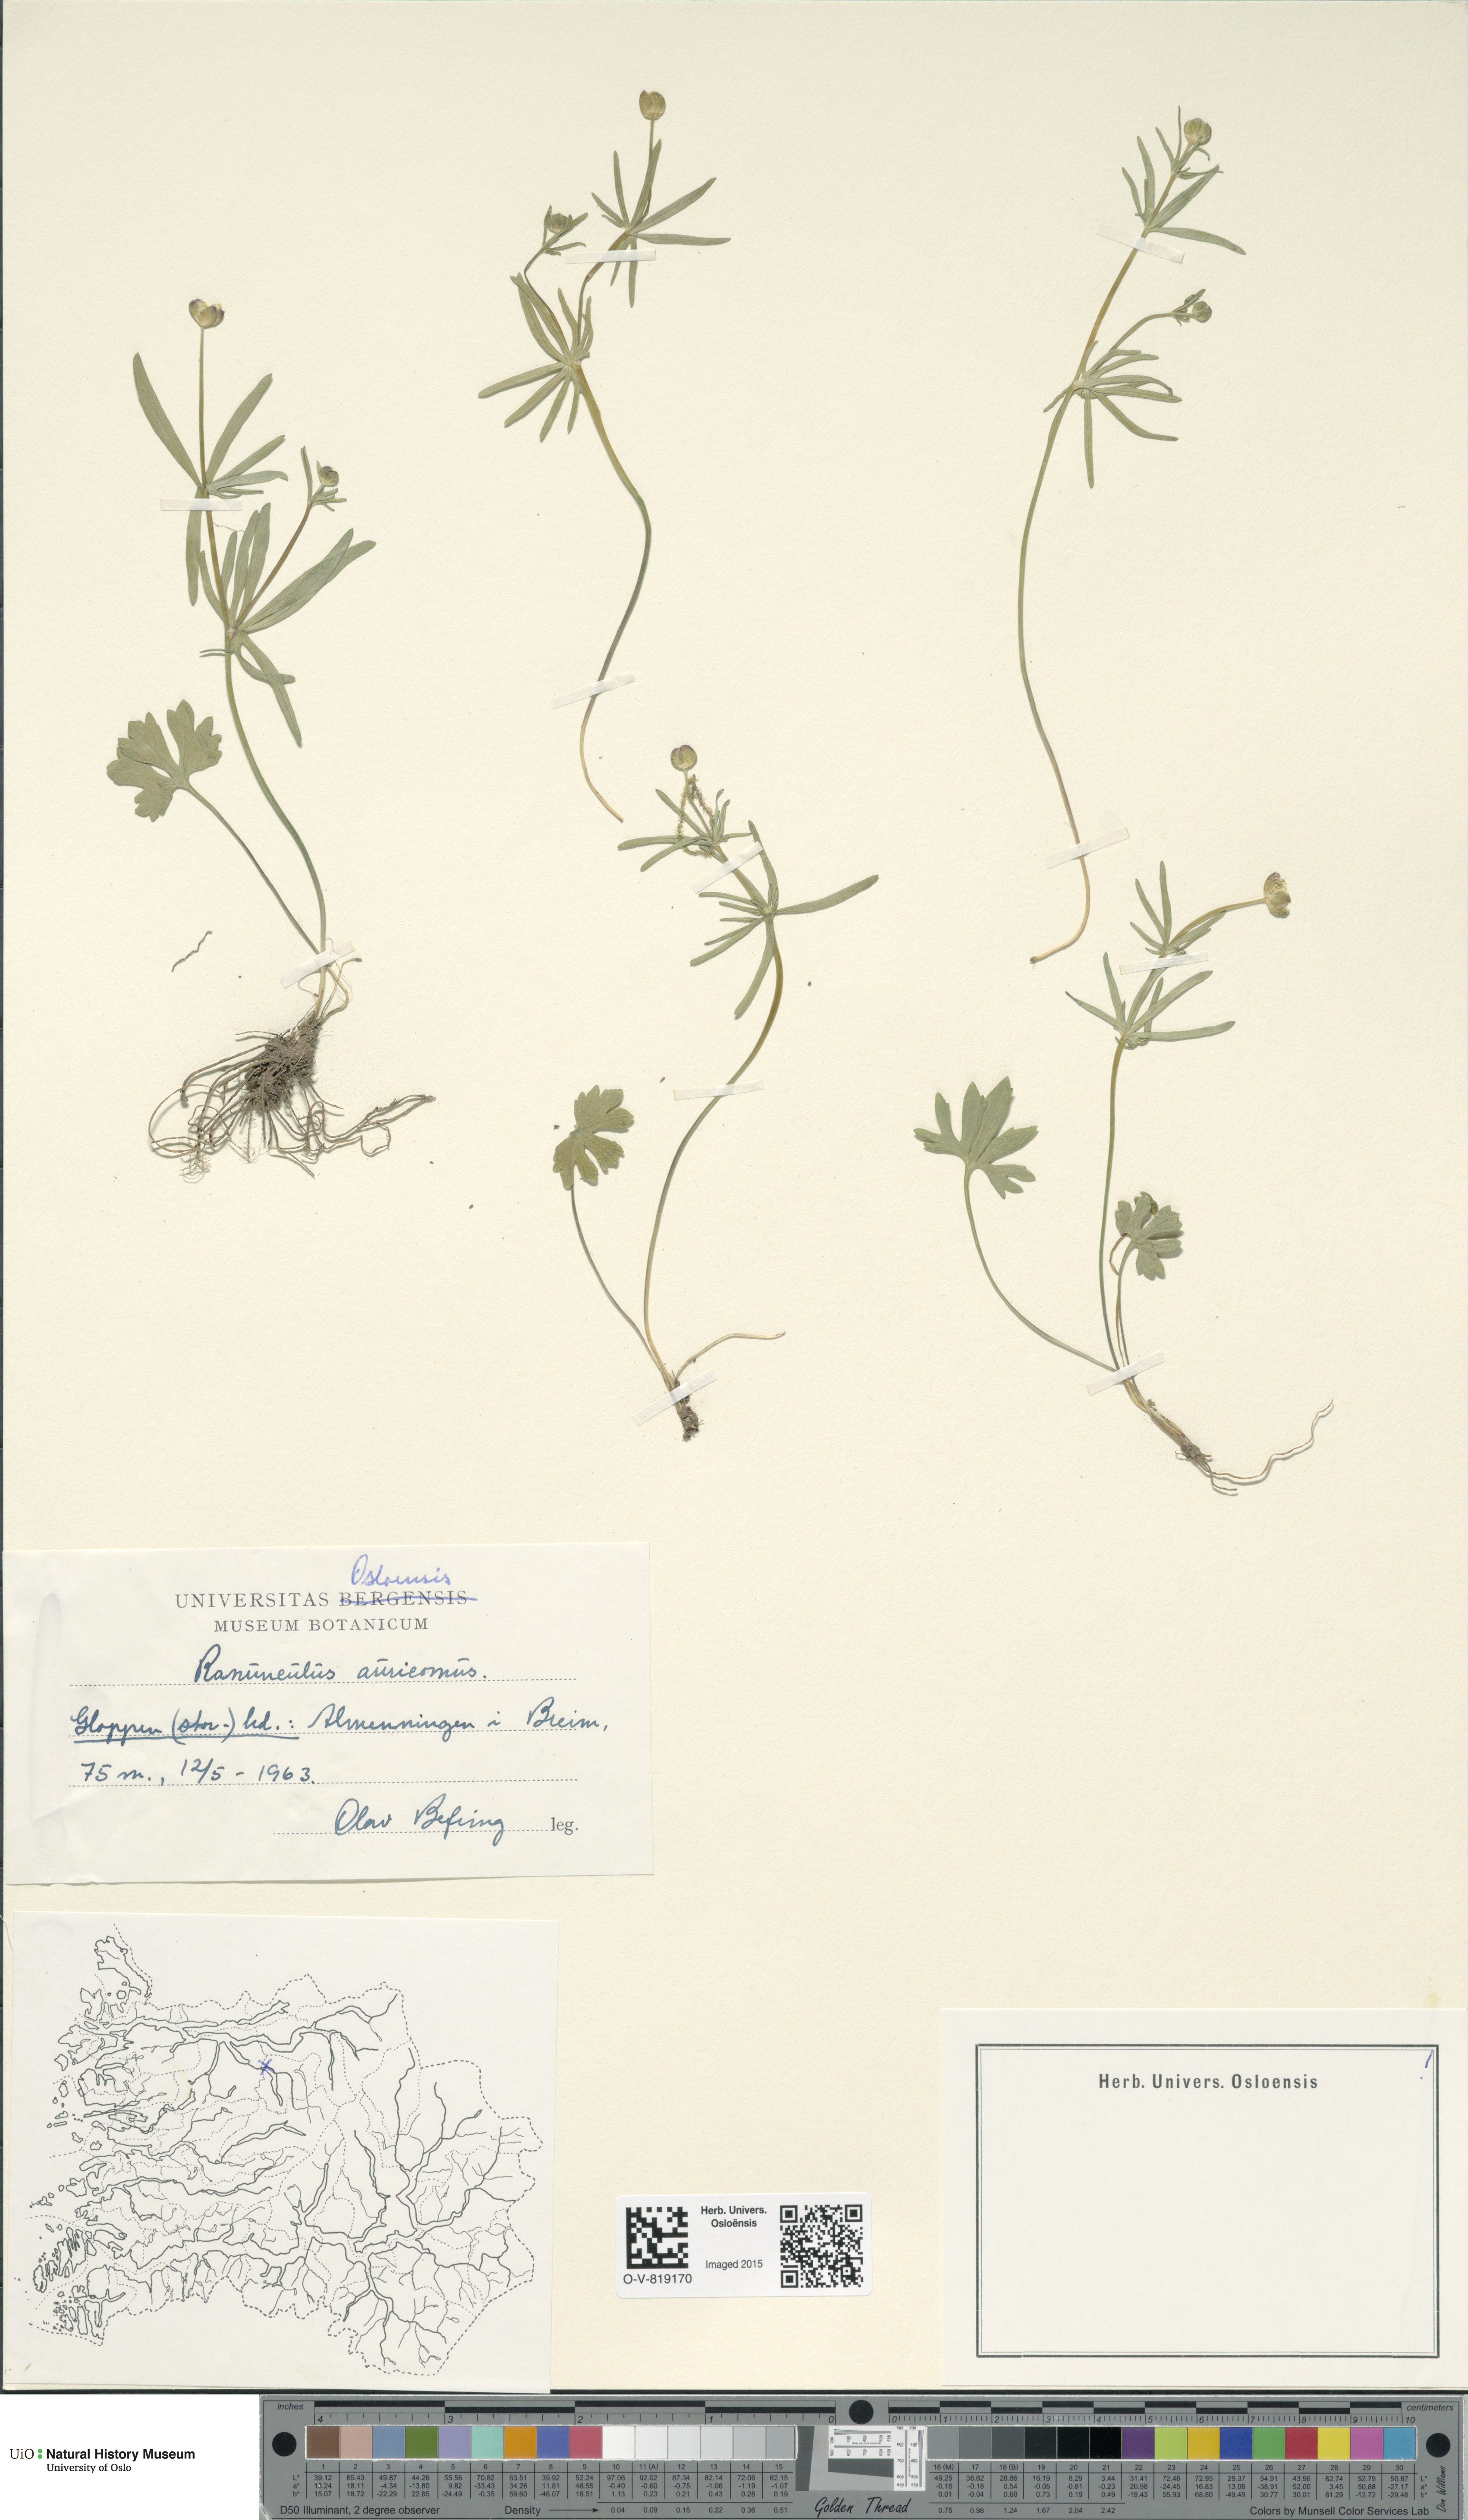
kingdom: Plantae
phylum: Tracheophyta
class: Magnoliopsida
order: Ranunculales
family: Ranunculaceae
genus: Ranunculus
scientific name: Ranunculus auricomus
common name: Goldilocks buttercup
